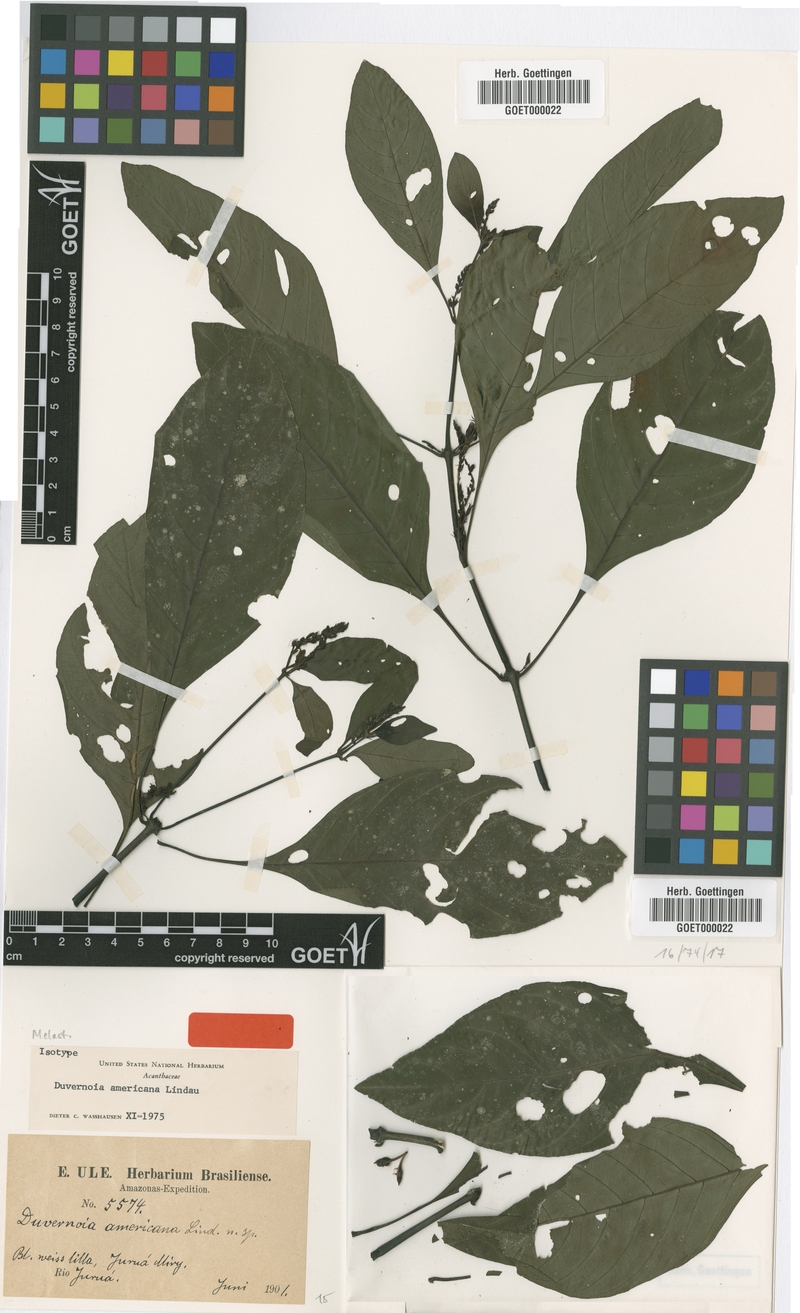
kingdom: Plantae
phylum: Tracheophyta
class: Magnoliopsida
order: Lamiales
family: Acanthaceae
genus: Justicia
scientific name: Justicia Duvernoia americana
